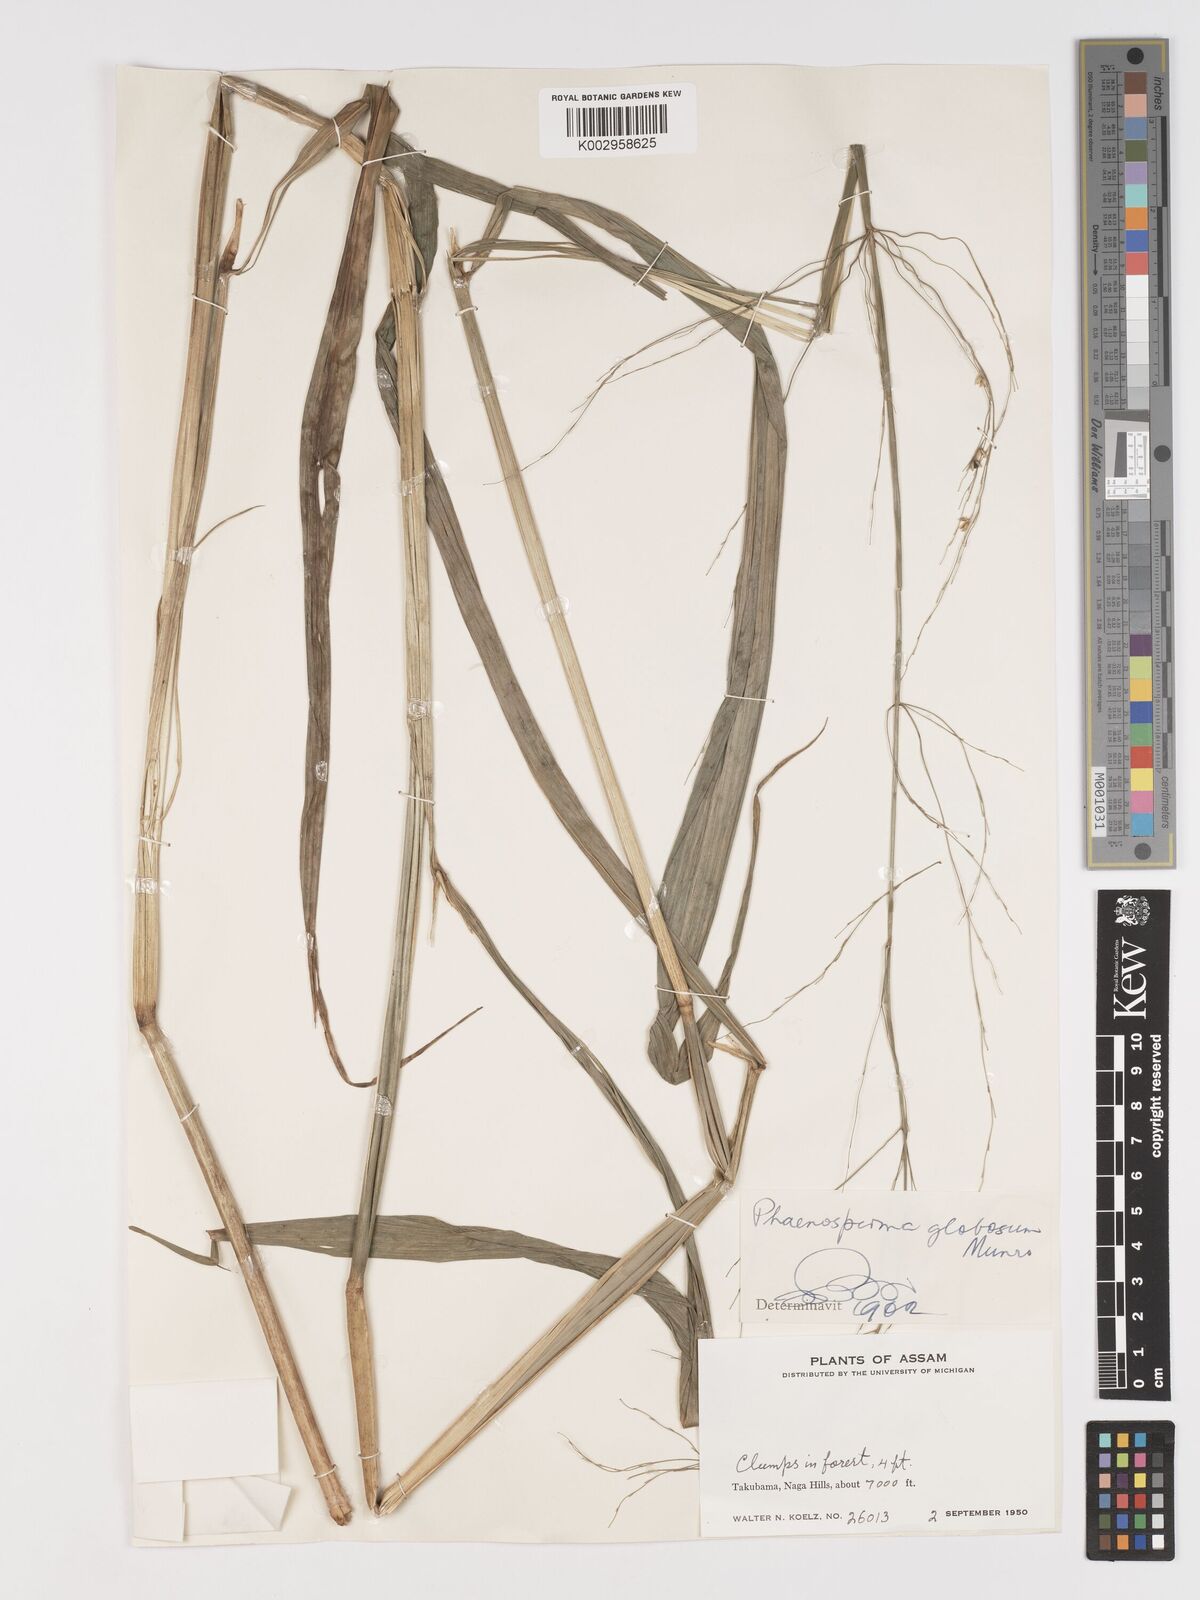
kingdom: Plantae
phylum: Tracheophyta
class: Liliopsida
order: Poales
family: Poaceae
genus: Phaenosperma
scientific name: Phaenosperma globosum
